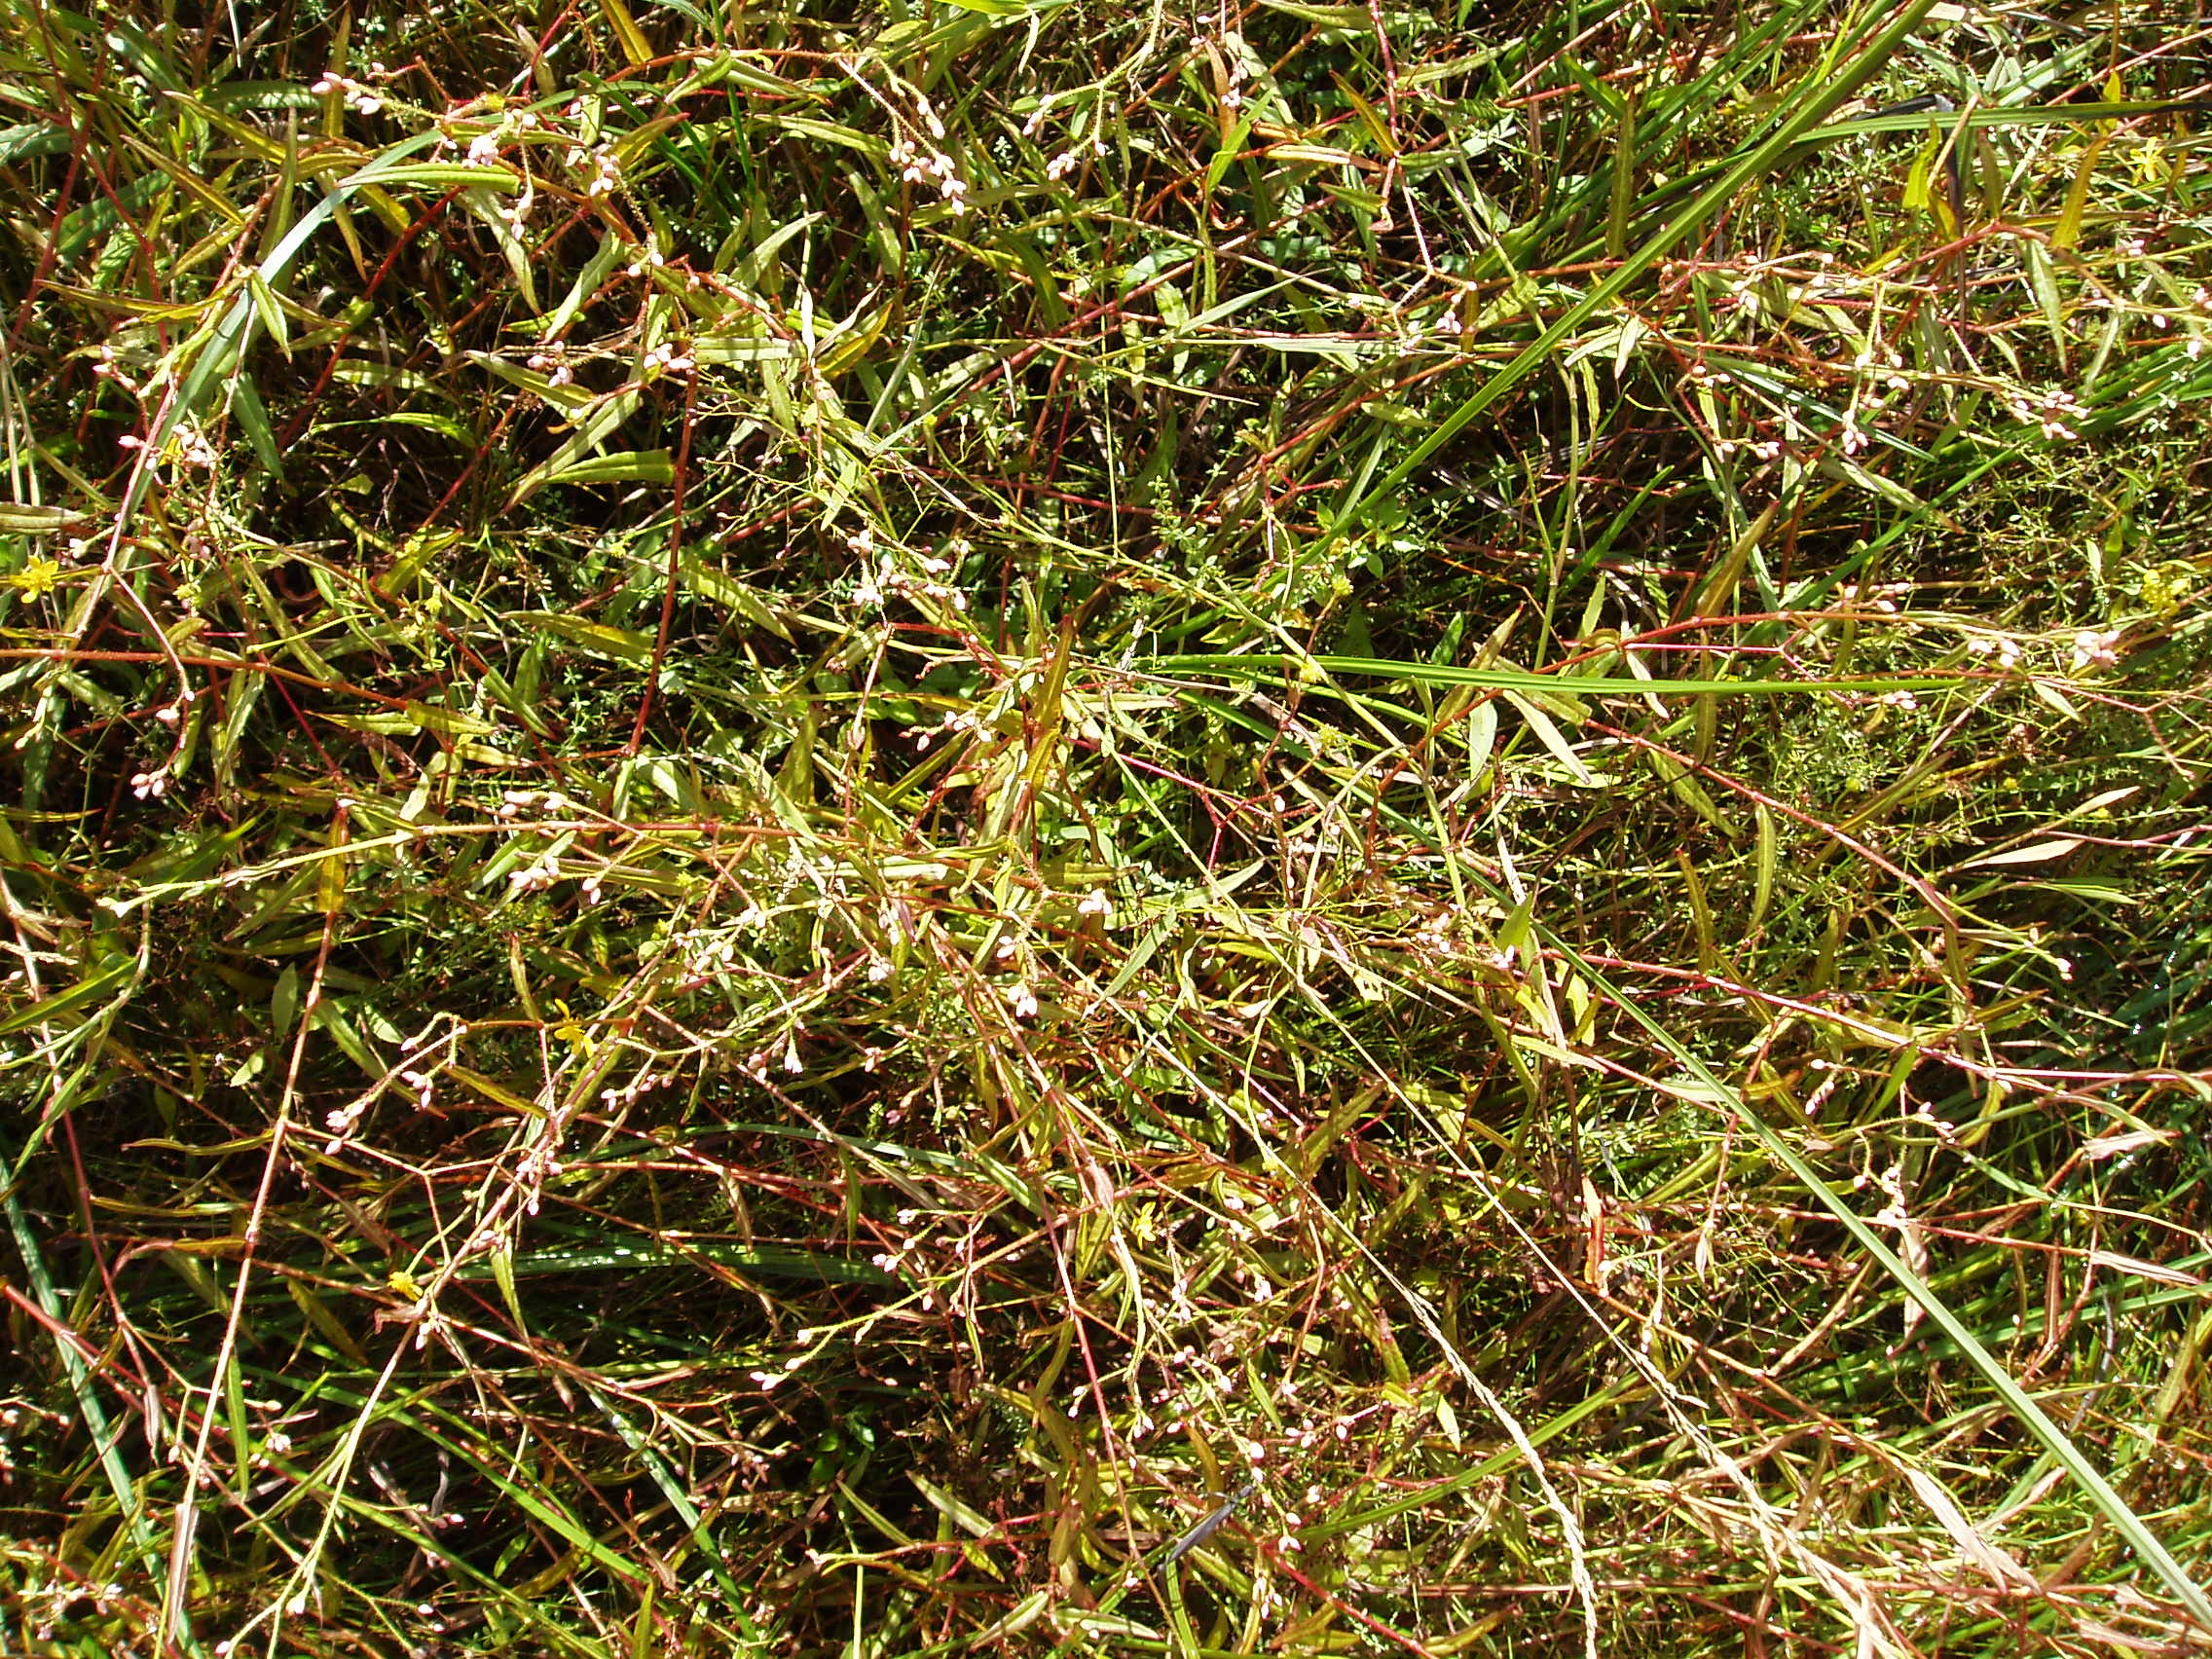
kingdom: Plantae
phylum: Tracheophyta
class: Magnoliopsida
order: Caryophyllales
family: Polygonaceae
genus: Persicaria
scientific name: Persicaria strigosa
